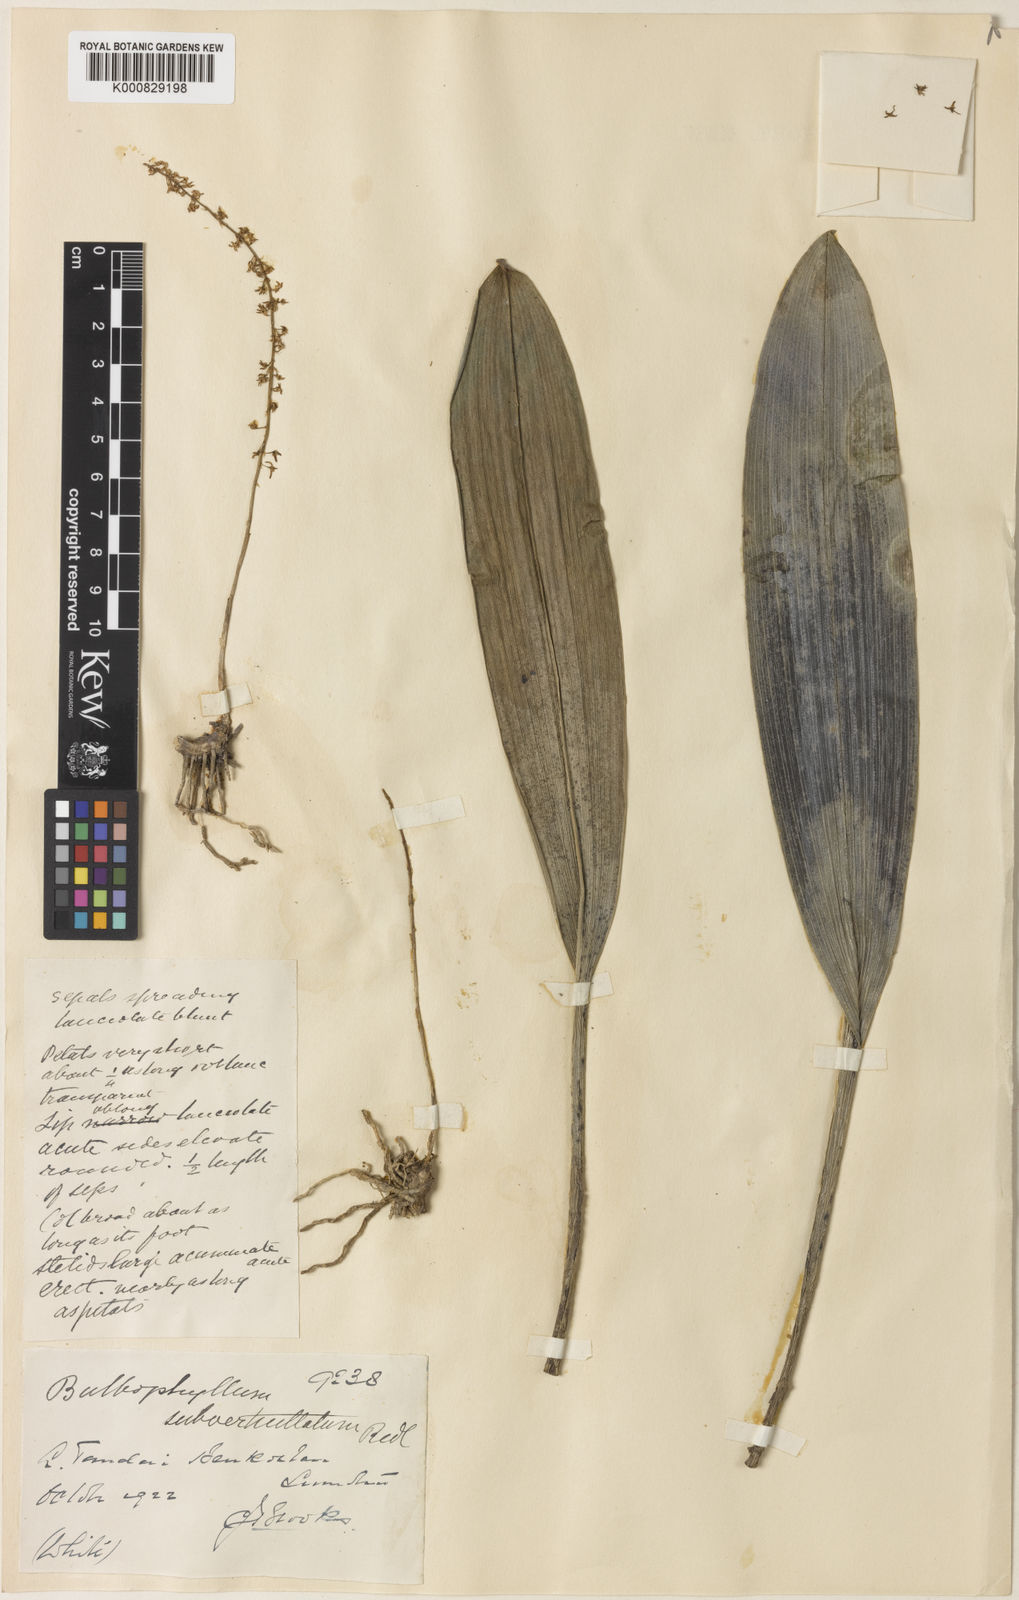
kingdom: Plantae
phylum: Tracheophyta
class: Liliopsida
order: Asparagales
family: Orchidaceae
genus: Bulbophyllum
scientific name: Bulbophyllum odoratum
